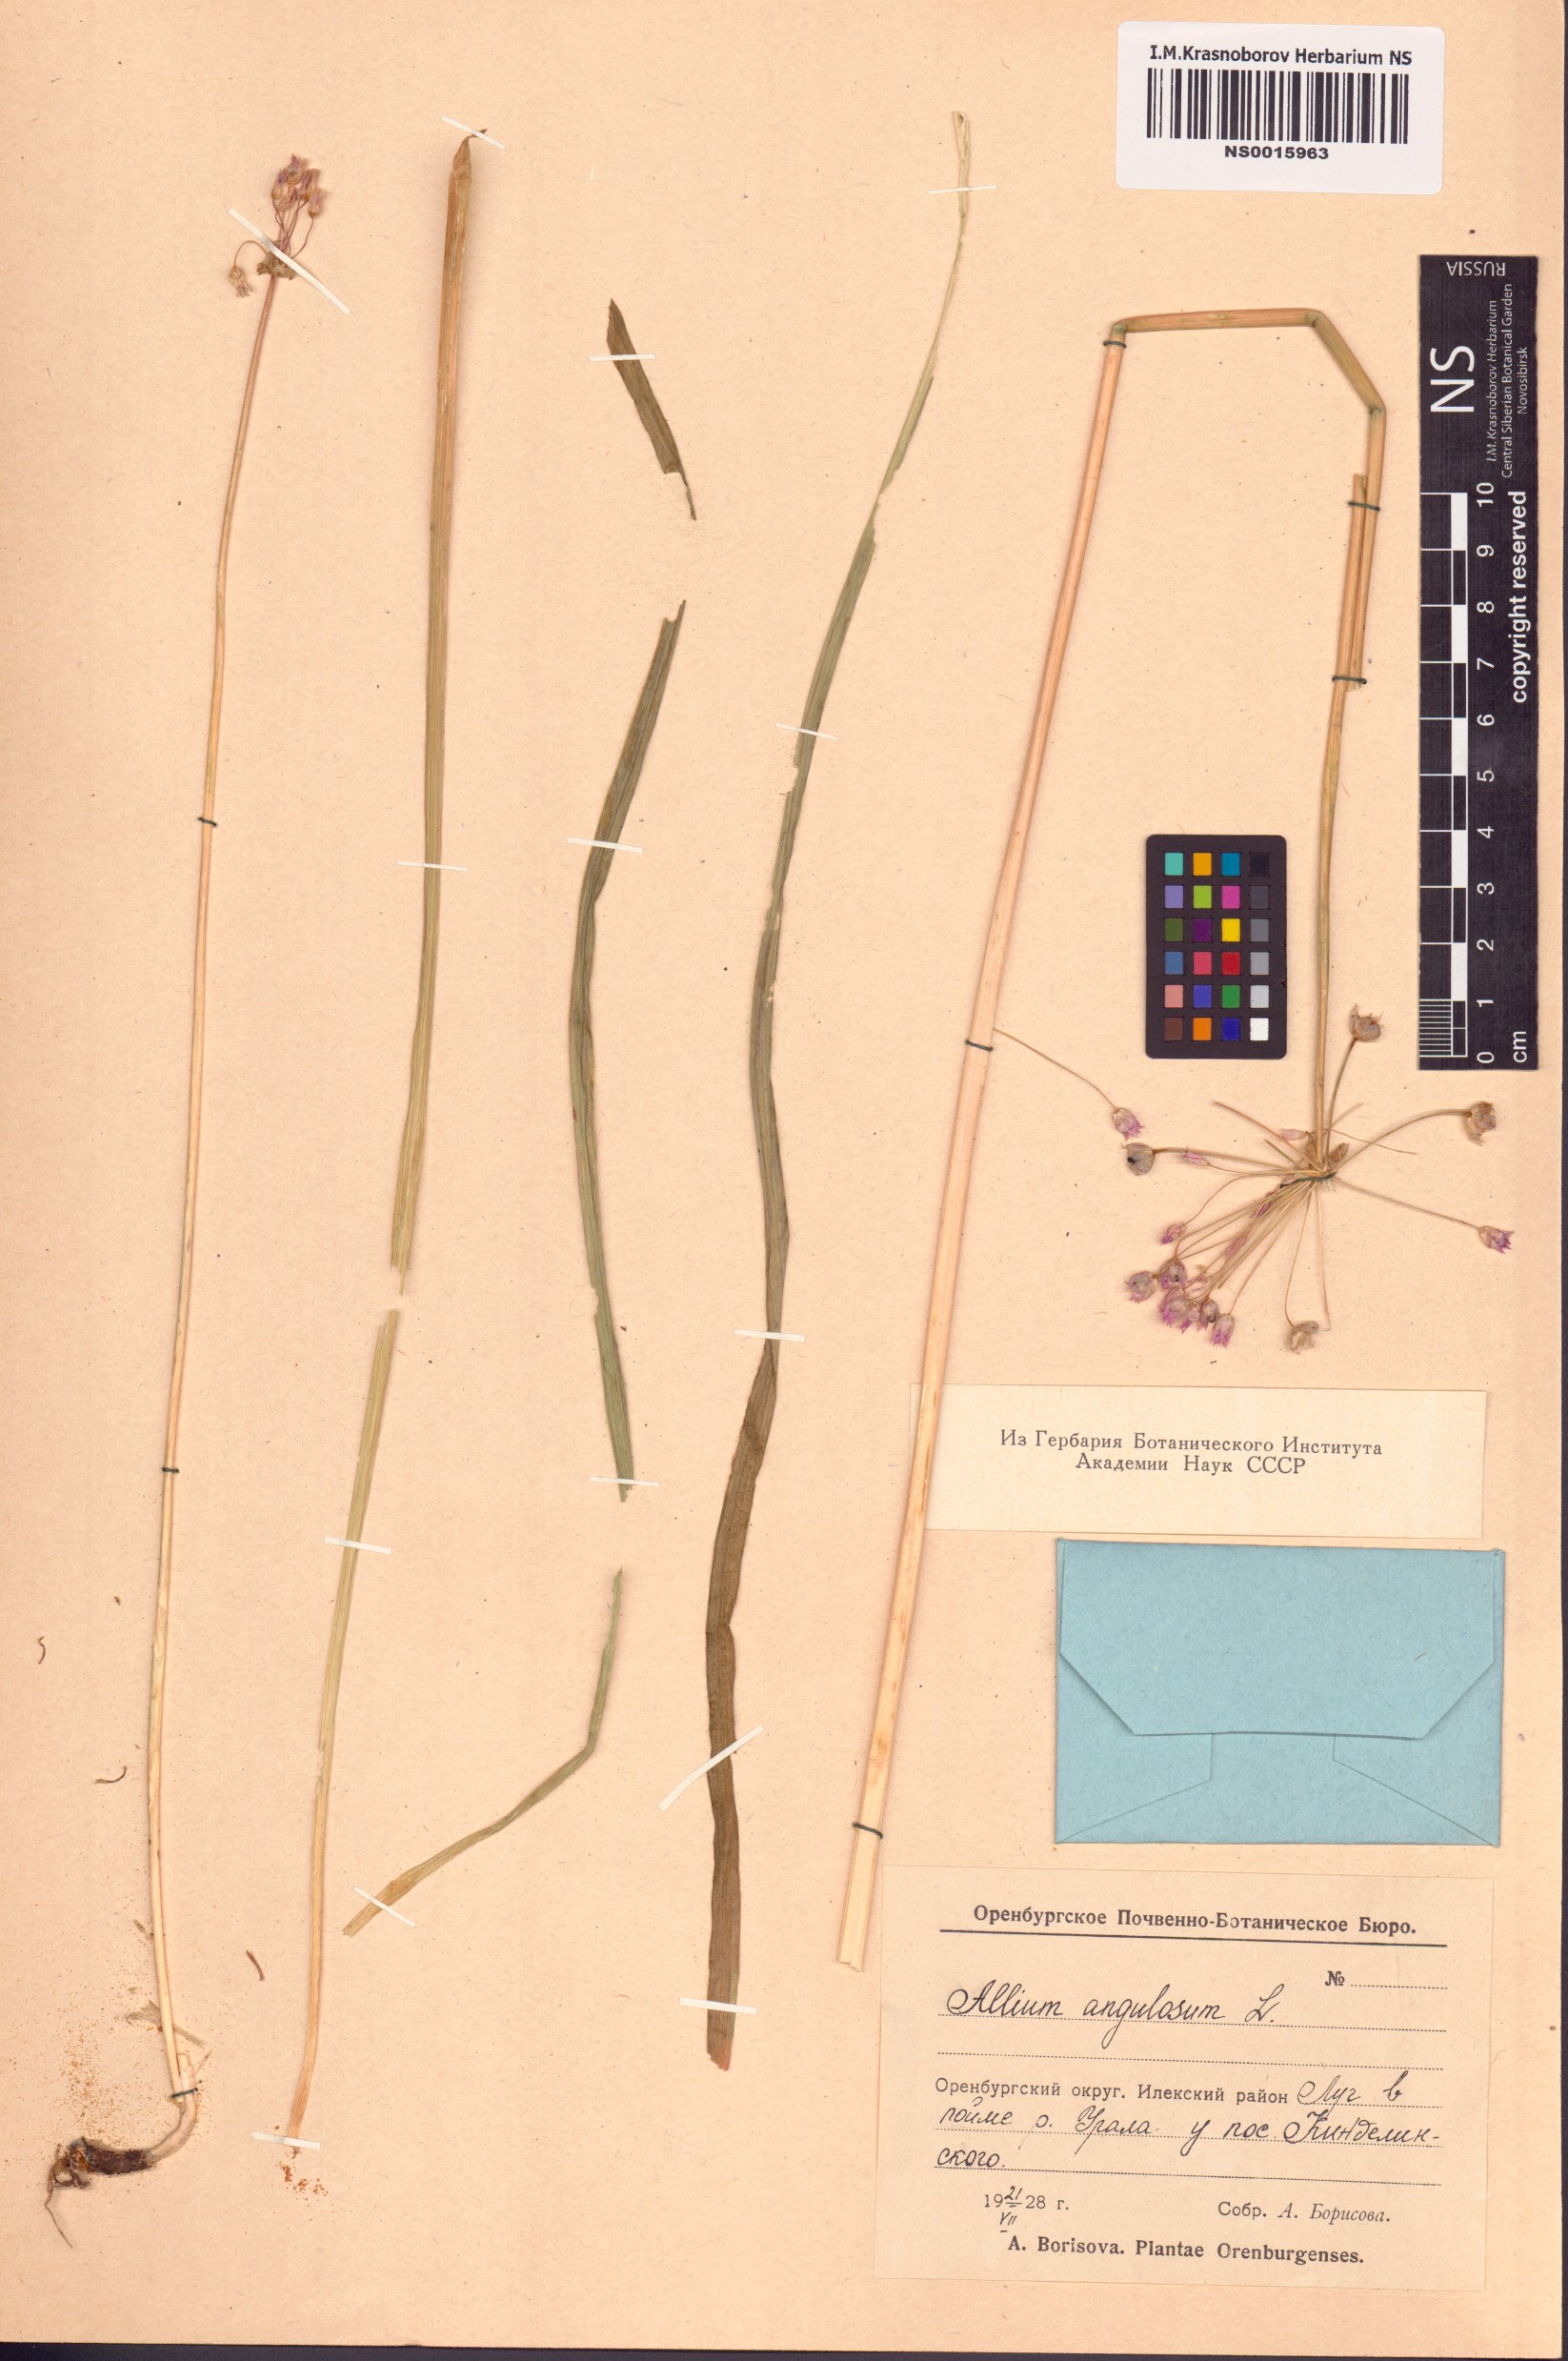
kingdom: Plantae
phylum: Tracheophyta
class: Liliopsida
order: Asparagales
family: Amaryllidaceae
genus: Allium
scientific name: Allium angulosum
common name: Mouse garlic
